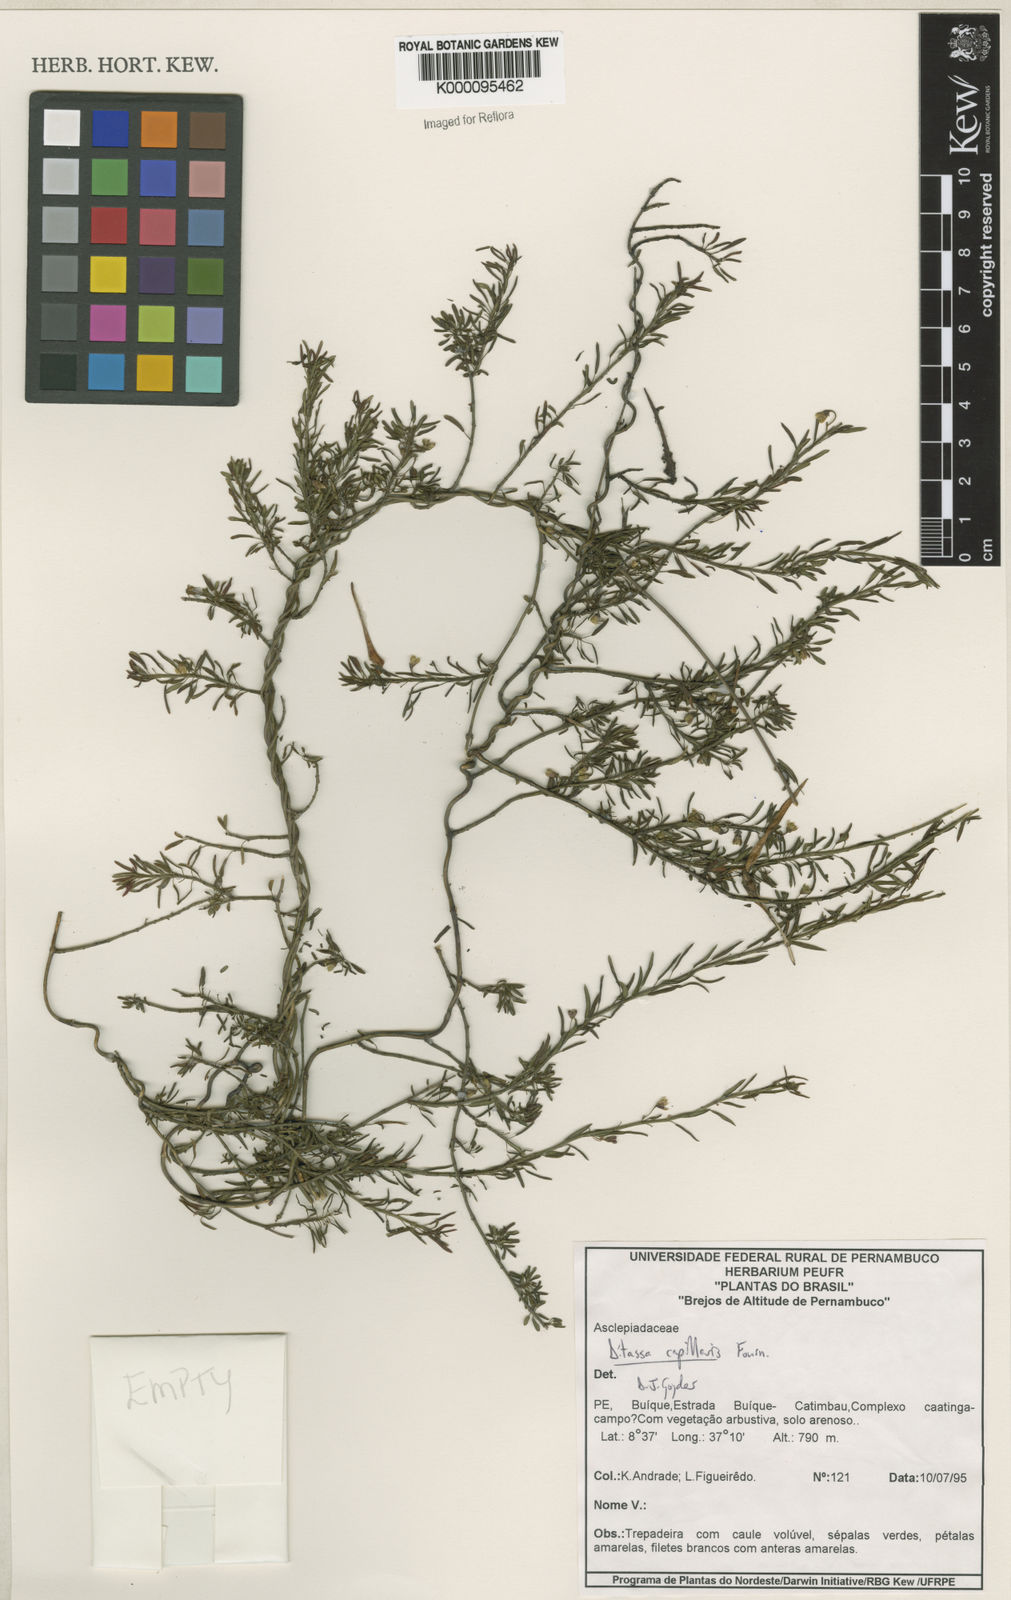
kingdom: Plantae
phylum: Tracheophyta
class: Magnoliopsida
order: Gentianales
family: Apocynaceae
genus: Ditassa
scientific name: Ditassa capillaris
